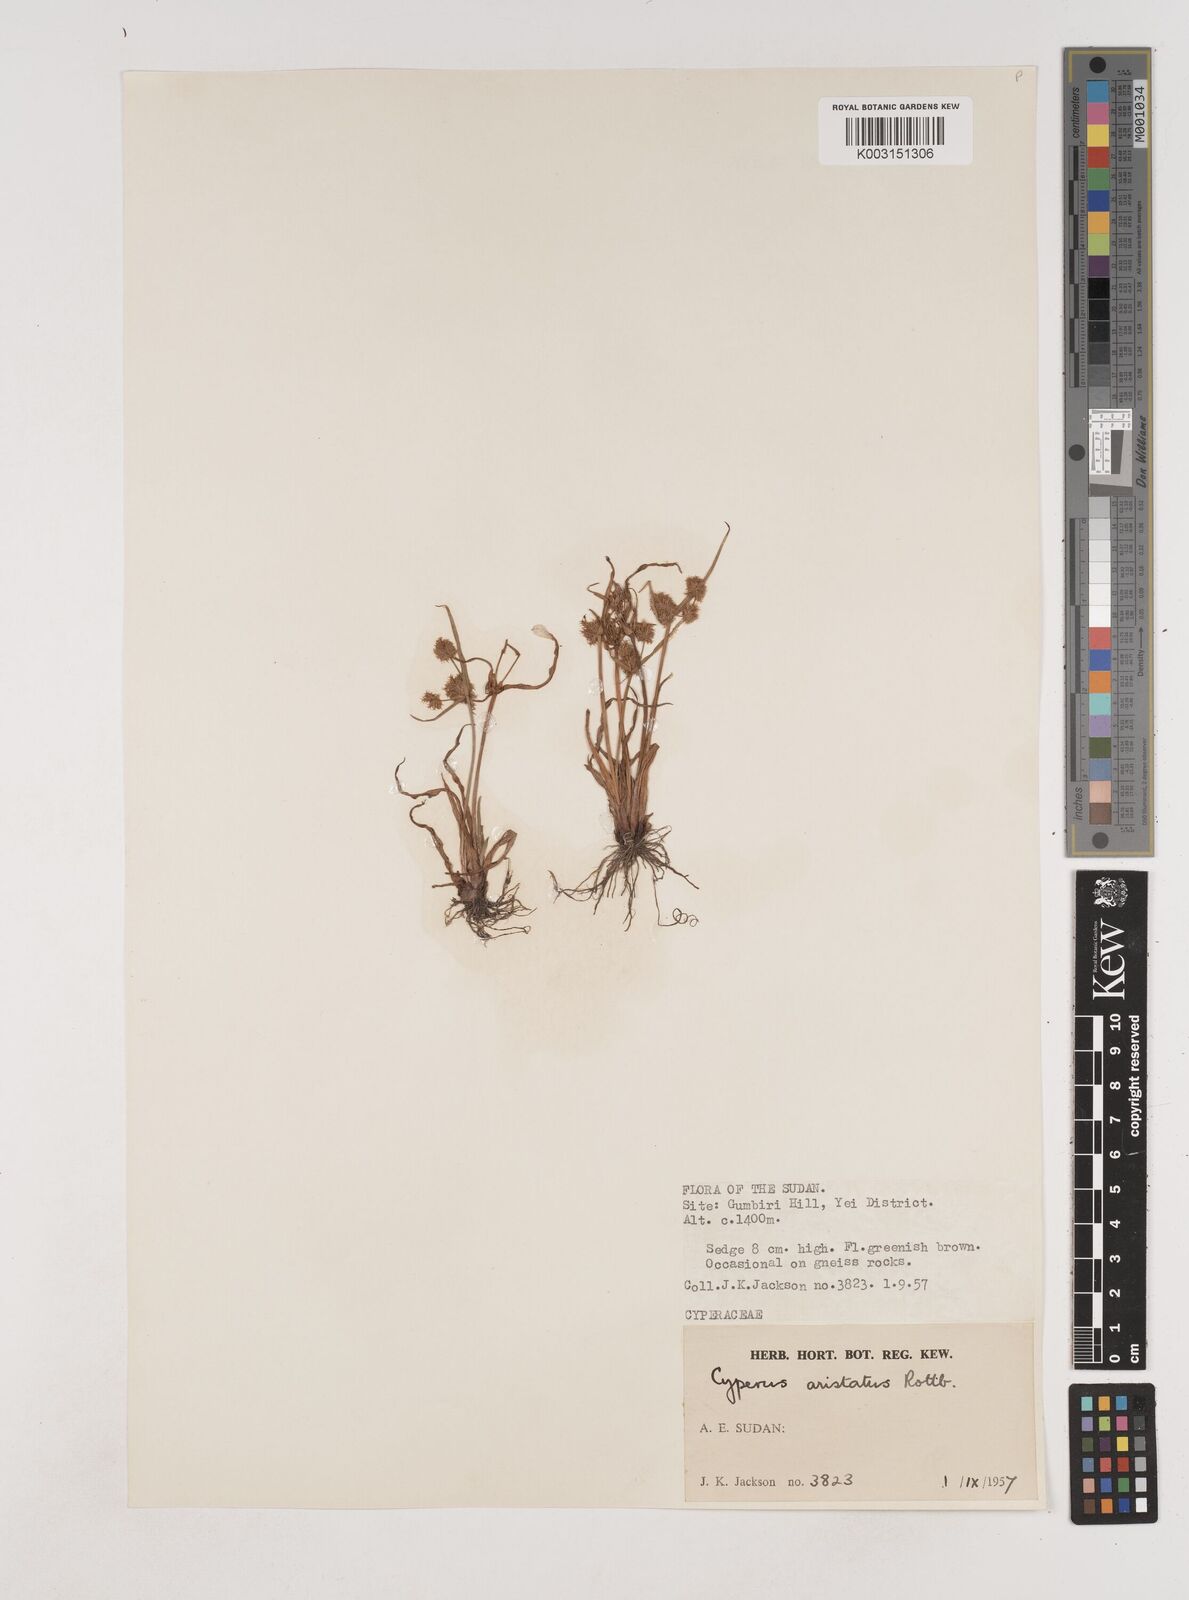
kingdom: Plantae
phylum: Tracheophyta
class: Liliopsida
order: Poales
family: Cyperaceae
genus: Cyperus
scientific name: Cyperus squarrosus
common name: Awned cyperus
